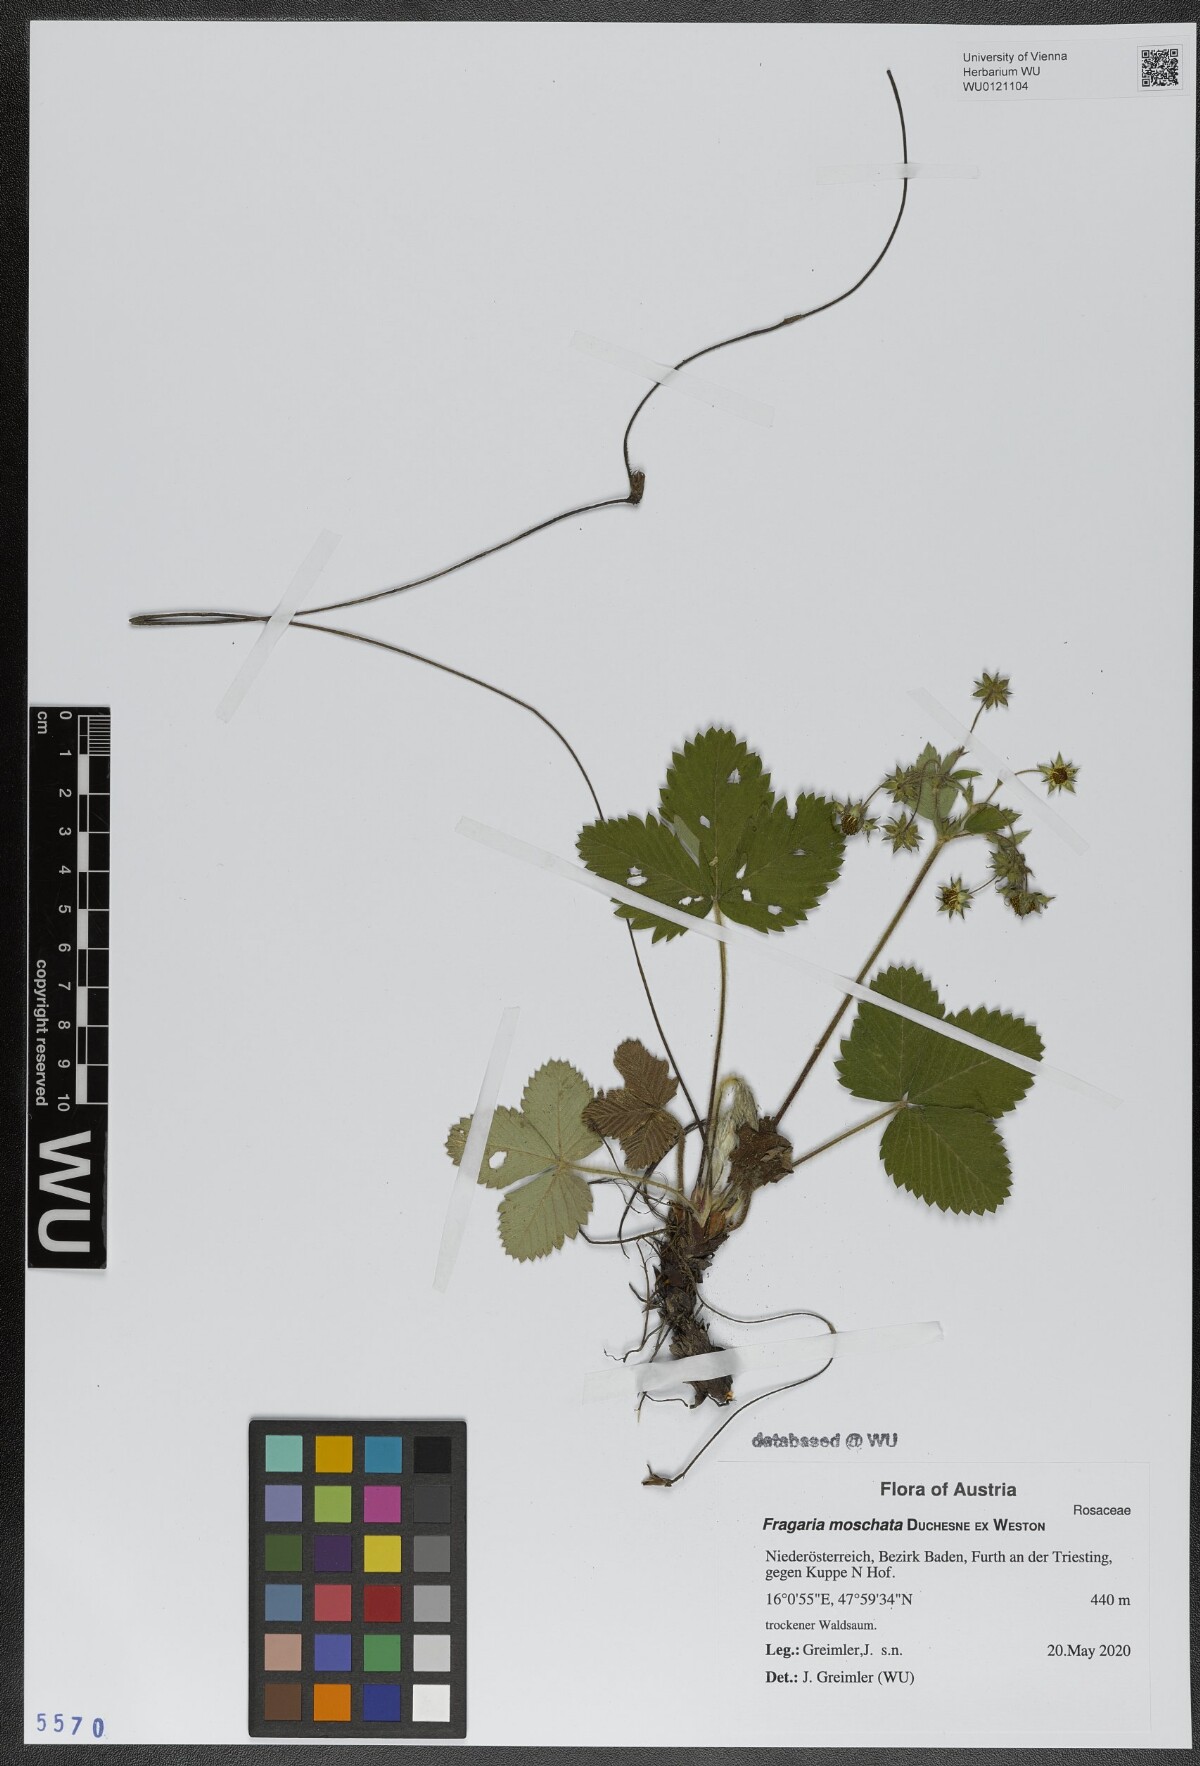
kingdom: Plantae
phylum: Tracheophyta
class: Magnoliopsida
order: Rosales
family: Rosaceae
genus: Fragaria
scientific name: Fragaria moschata
